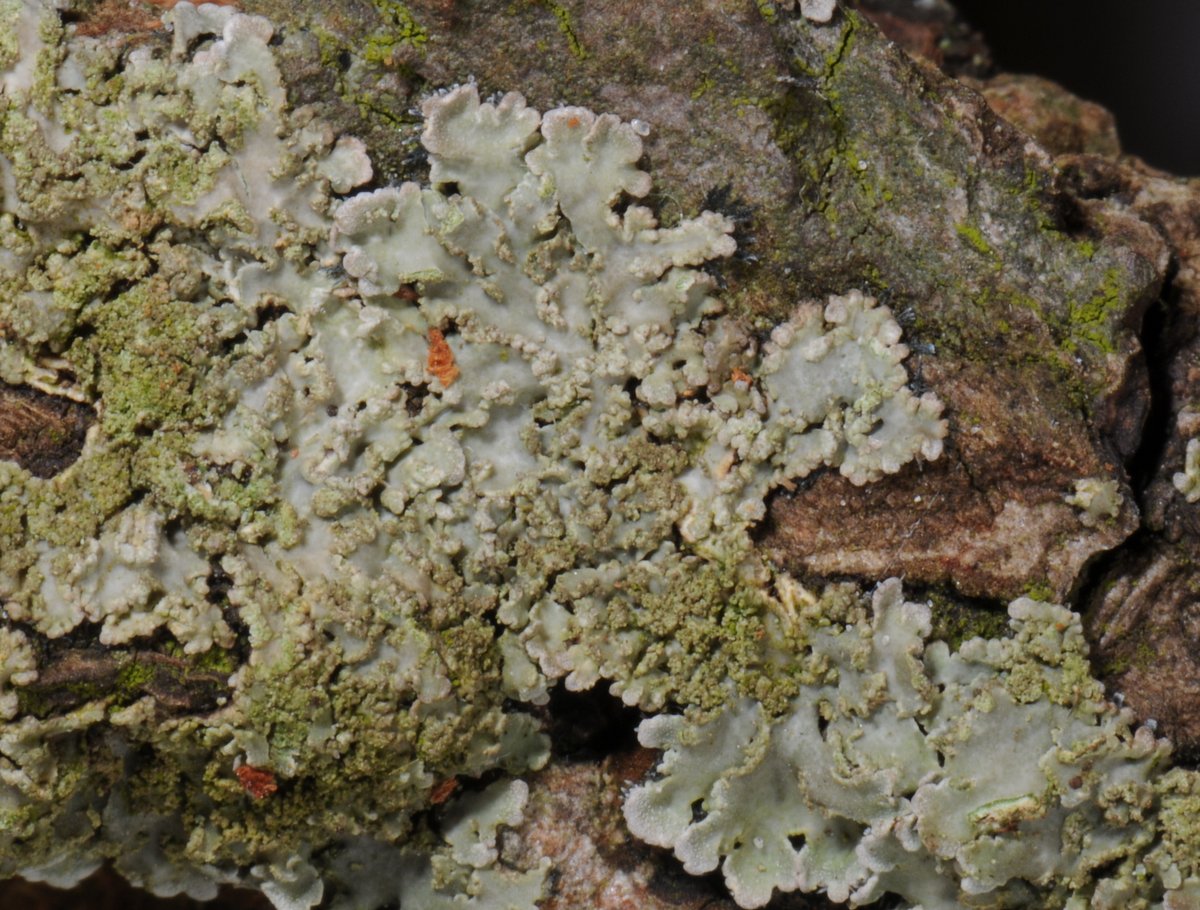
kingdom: Fungi
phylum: Ascomycota
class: Lecanoromycetes
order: Caliciales
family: Physciaceae
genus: Physconia
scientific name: Physconia perisidiosa
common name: liden dugrosetlav
